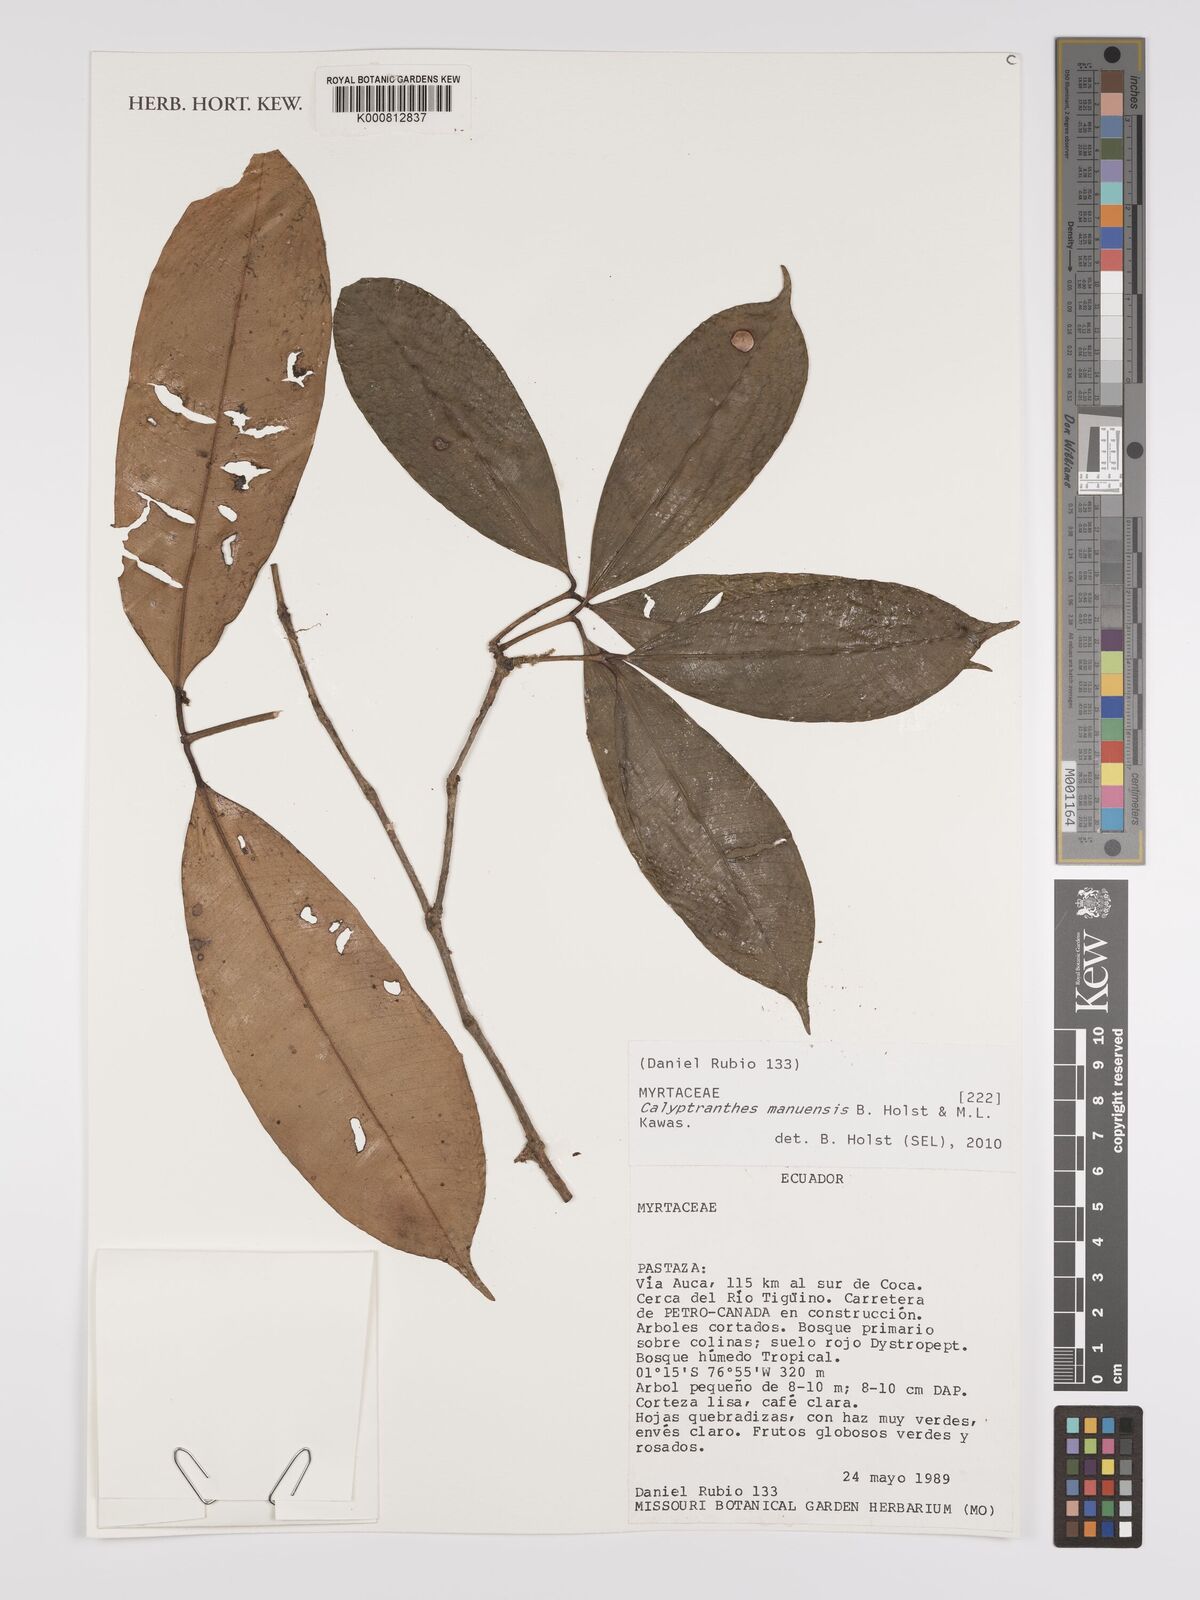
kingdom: Plantae
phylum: Tracheophyta
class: Magnoliopsida
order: Myrtales
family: Myrtaceae
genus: Myrcia
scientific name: Myrcia manuensis
